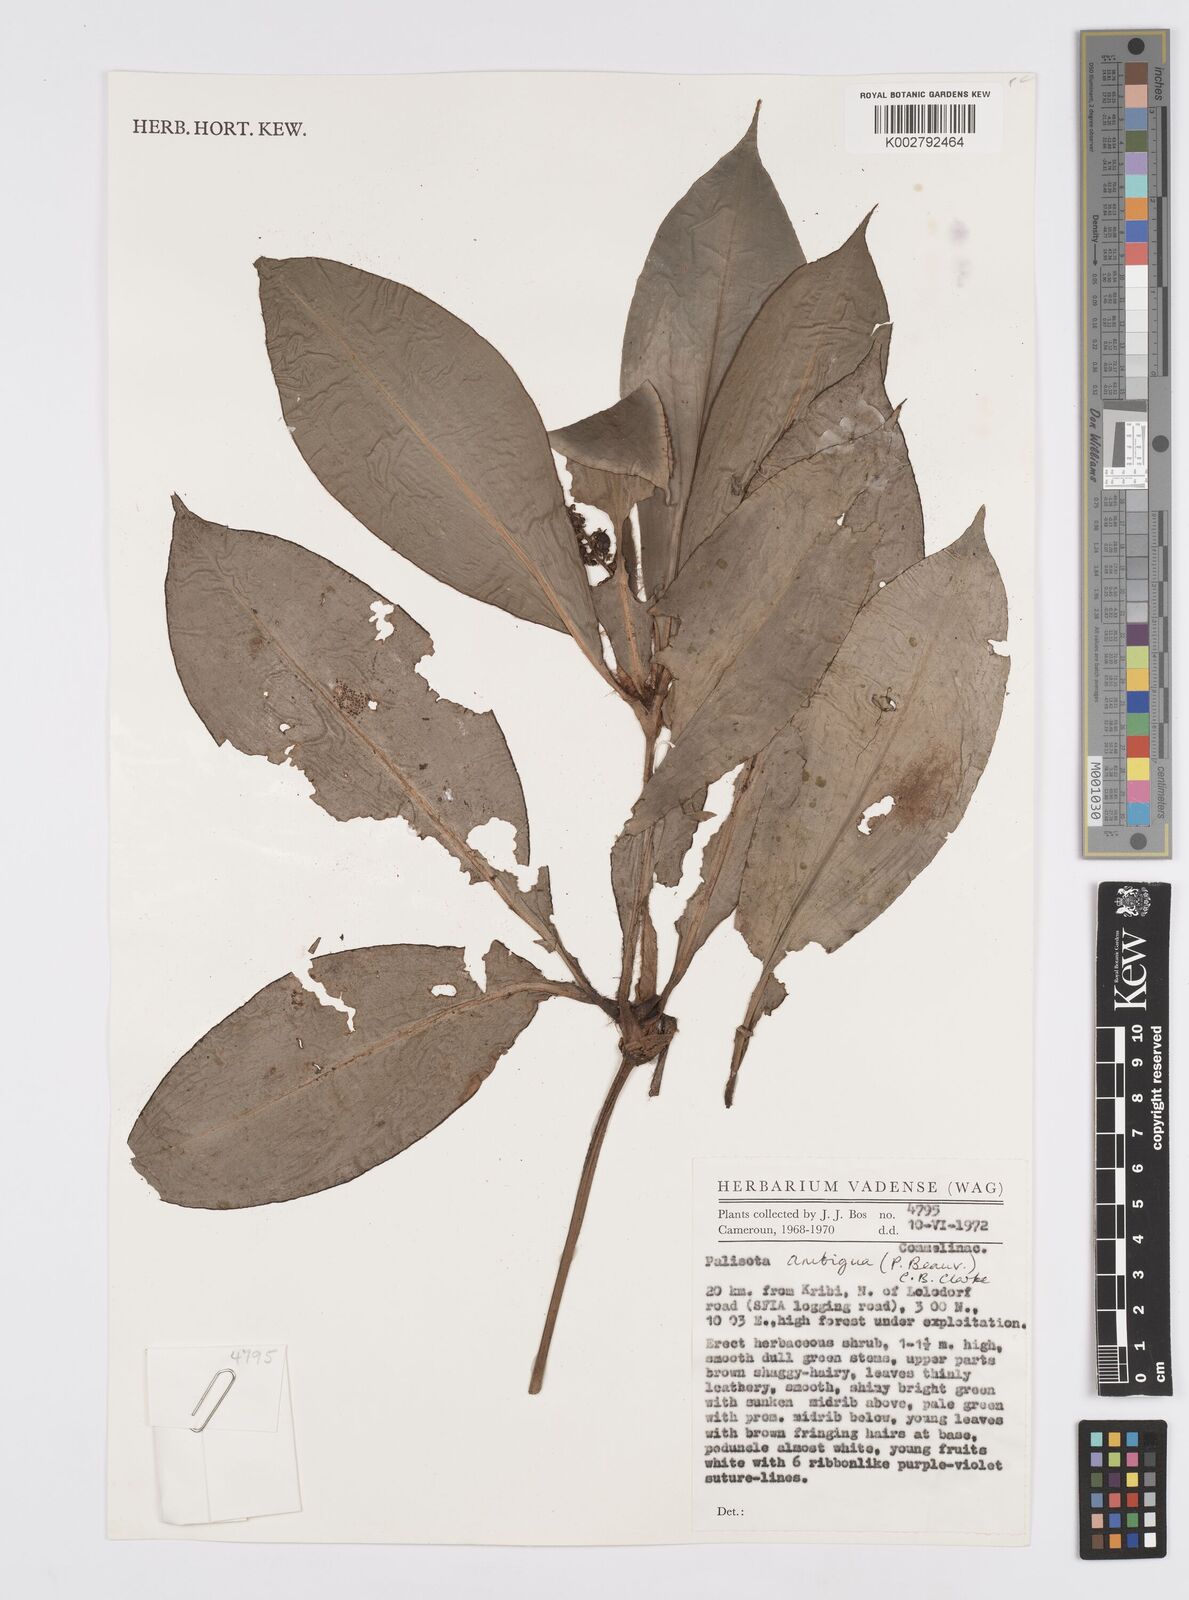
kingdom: Plantae
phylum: Tracheophyta
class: Liliopsida
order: Commelinales
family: Commelinaceae
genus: Palisota
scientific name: Palisota ambigua
